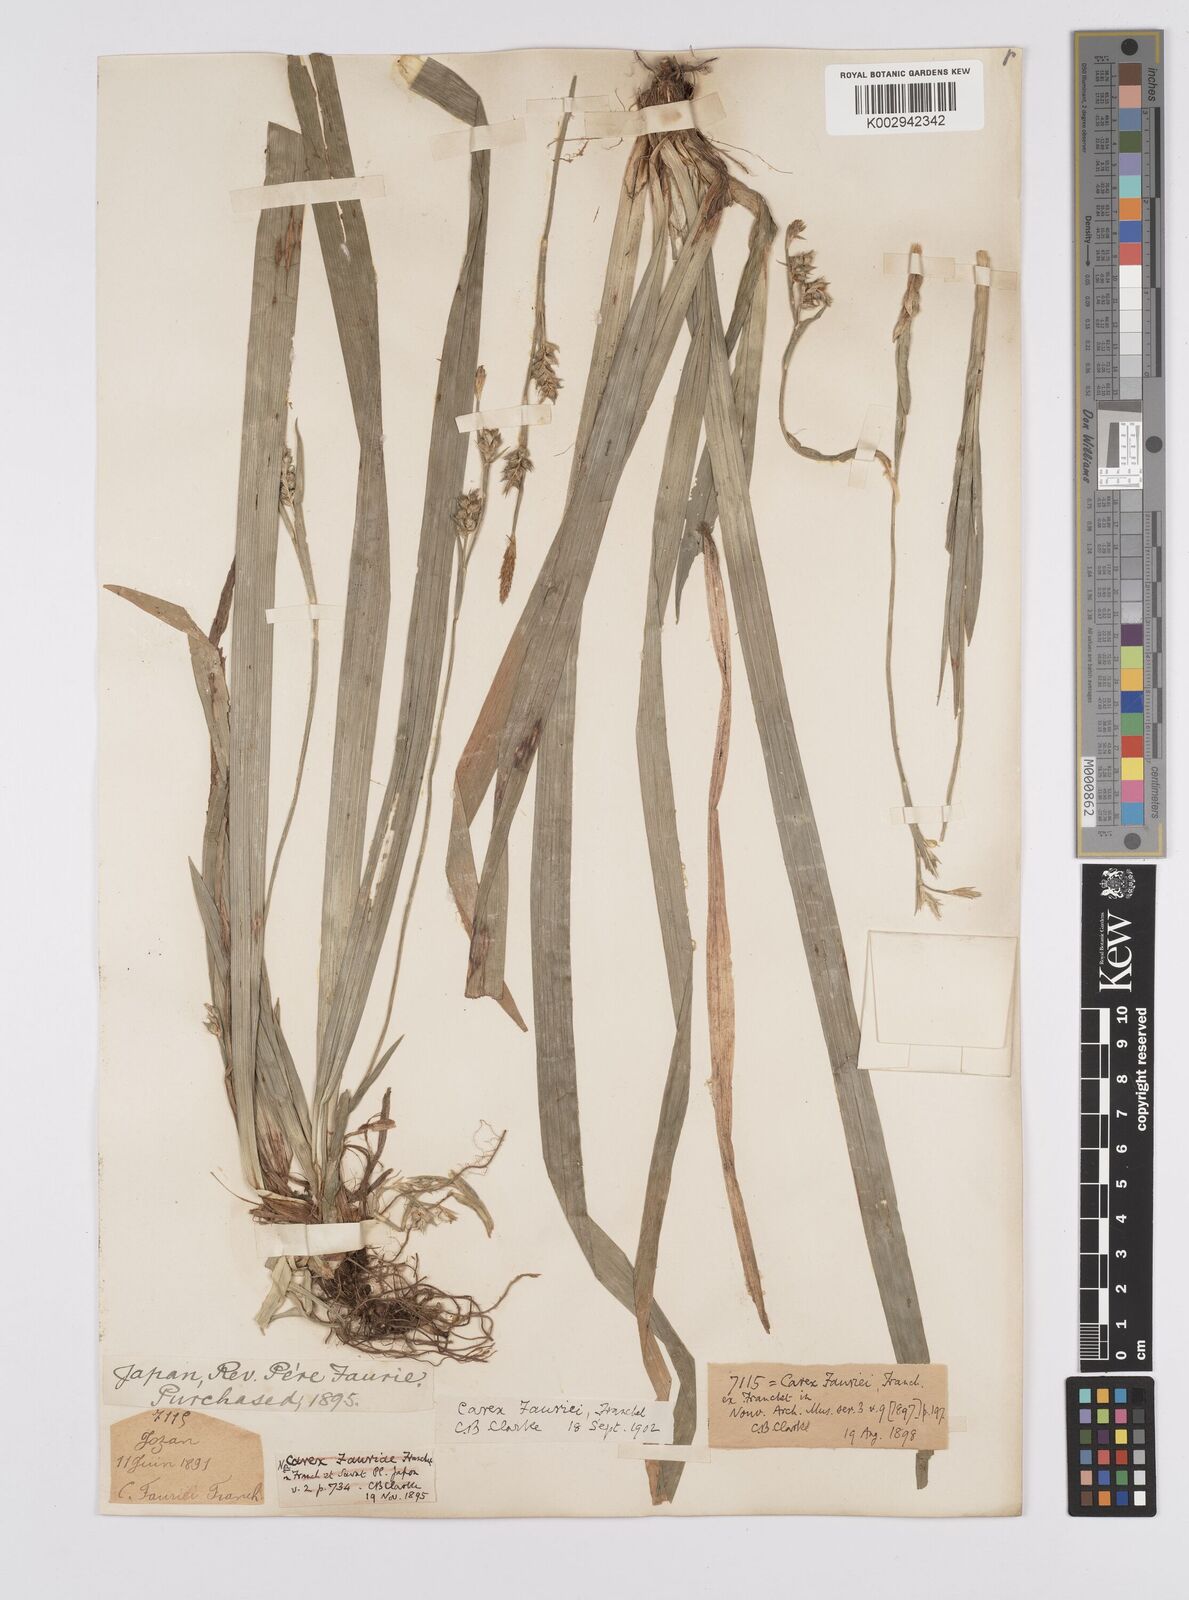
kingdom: Plantae
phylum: Tracheophyta
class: Liliopsida
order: Poales
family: Cyperaceae
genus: Carex
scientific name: Carex phacota
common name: Lakeshore sedge
